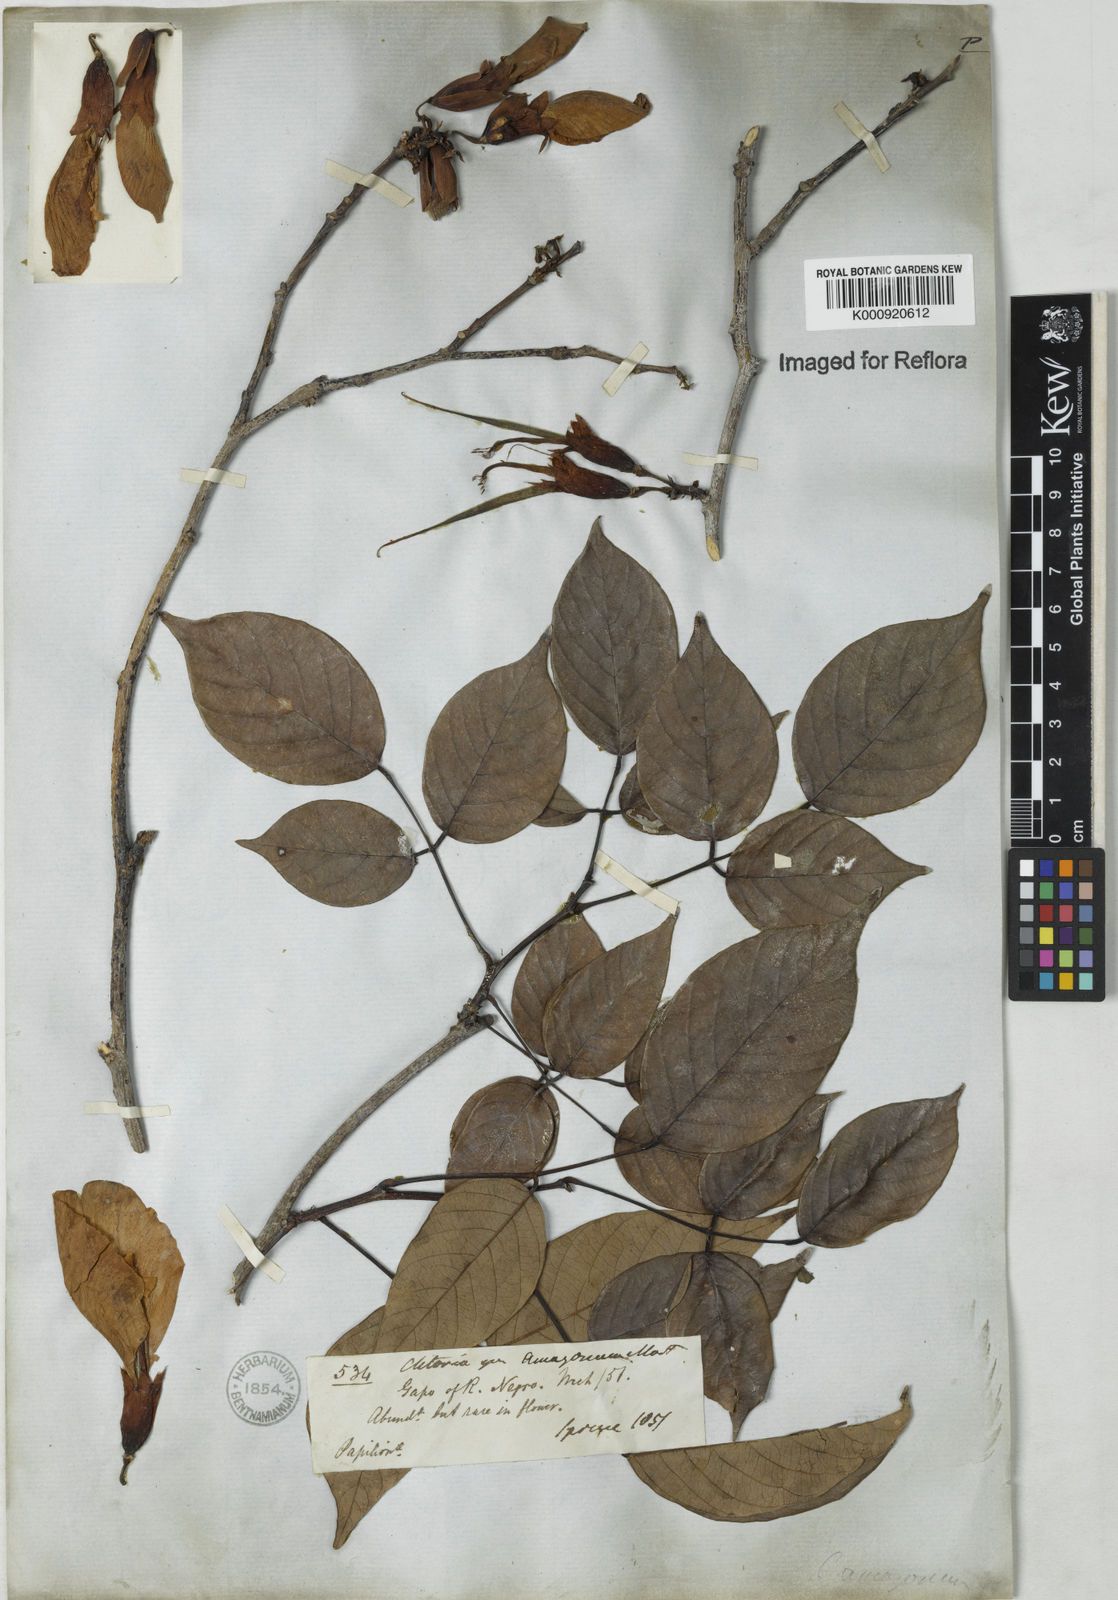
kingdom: Plantae
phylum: Tracheophyta
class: Magnoliopsida
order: Fabales
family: Fabaceae
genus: Clitoria
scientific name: Clitoria amazonum
